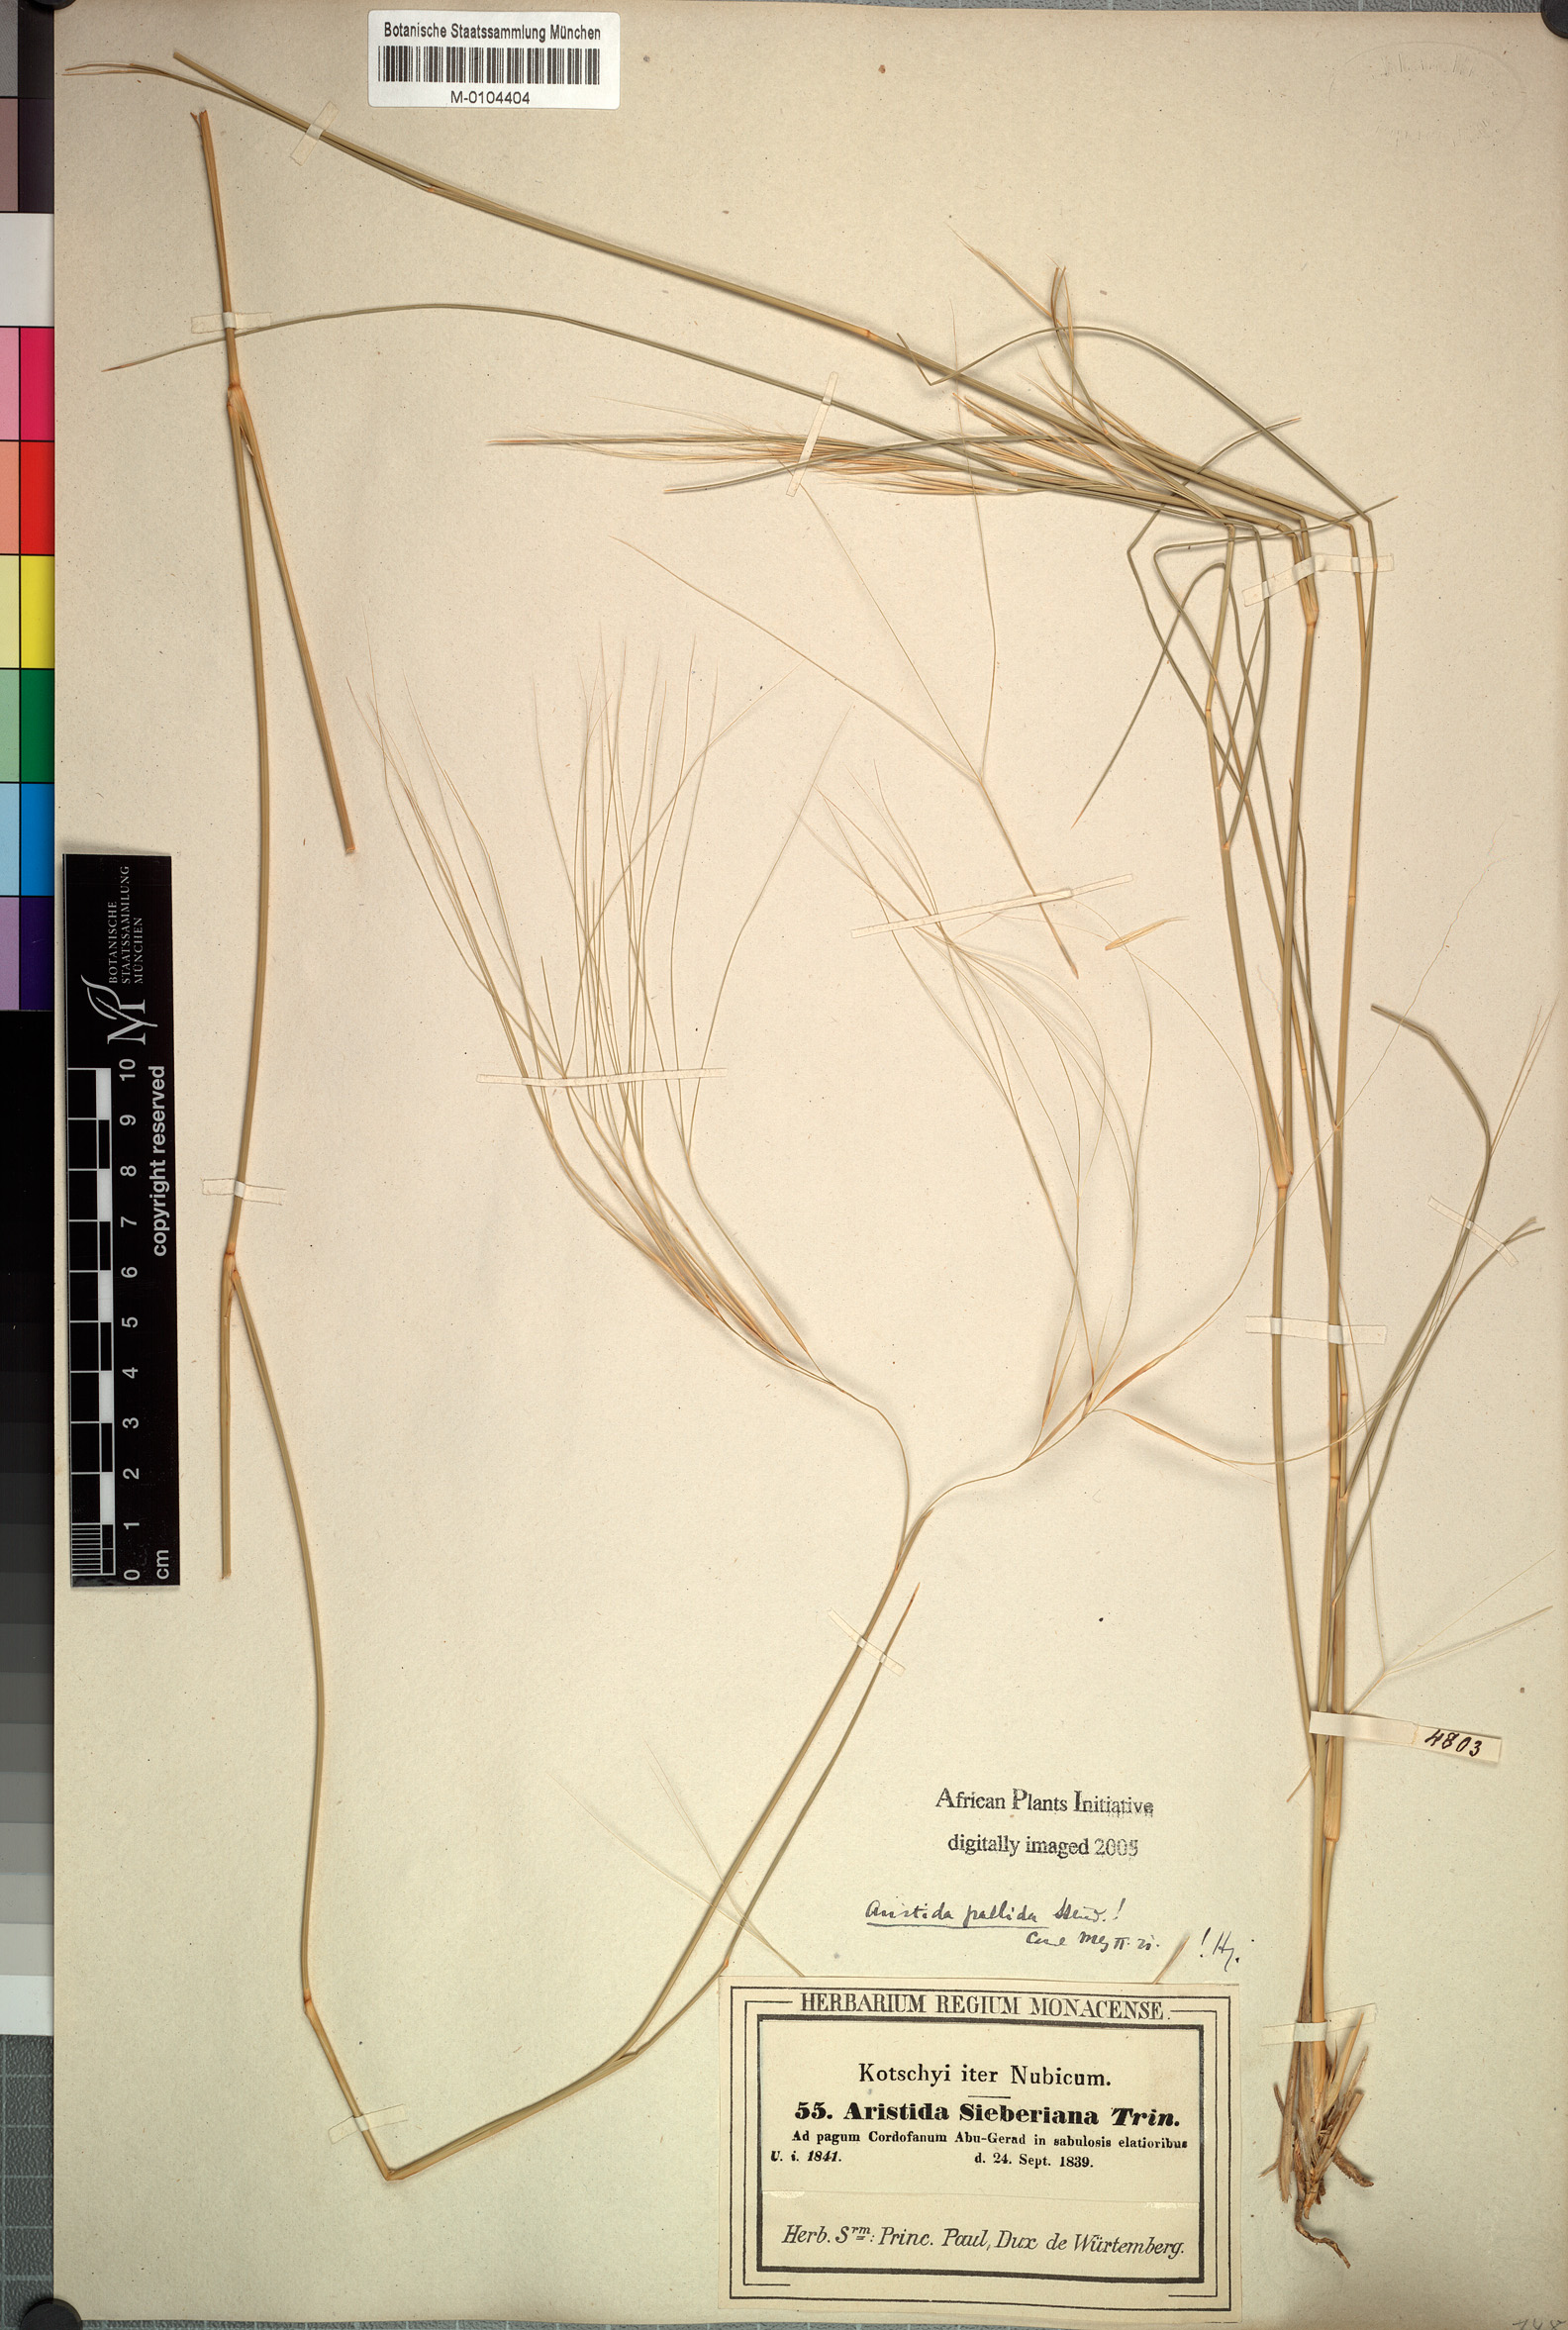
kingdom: Plantae
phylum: Tracheophyta
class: Liliopsida
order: Poales
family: Poaceae
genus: Aristida
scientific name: Aristida sieberiana
